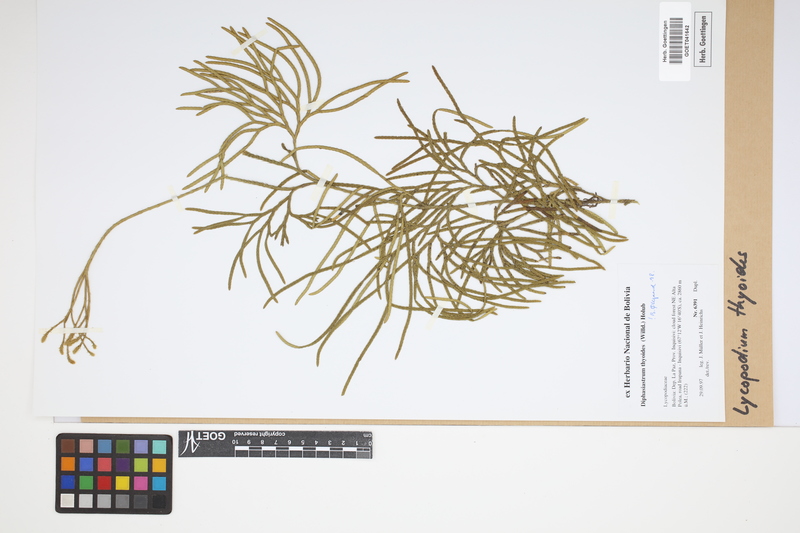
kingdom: Plantae
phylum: Tracheophyta
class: Lycopodiopsida
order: Lycopodiales
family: Lycopodiaceae
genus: Diphasiastrum
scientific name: Diphasiastrum thyoides
